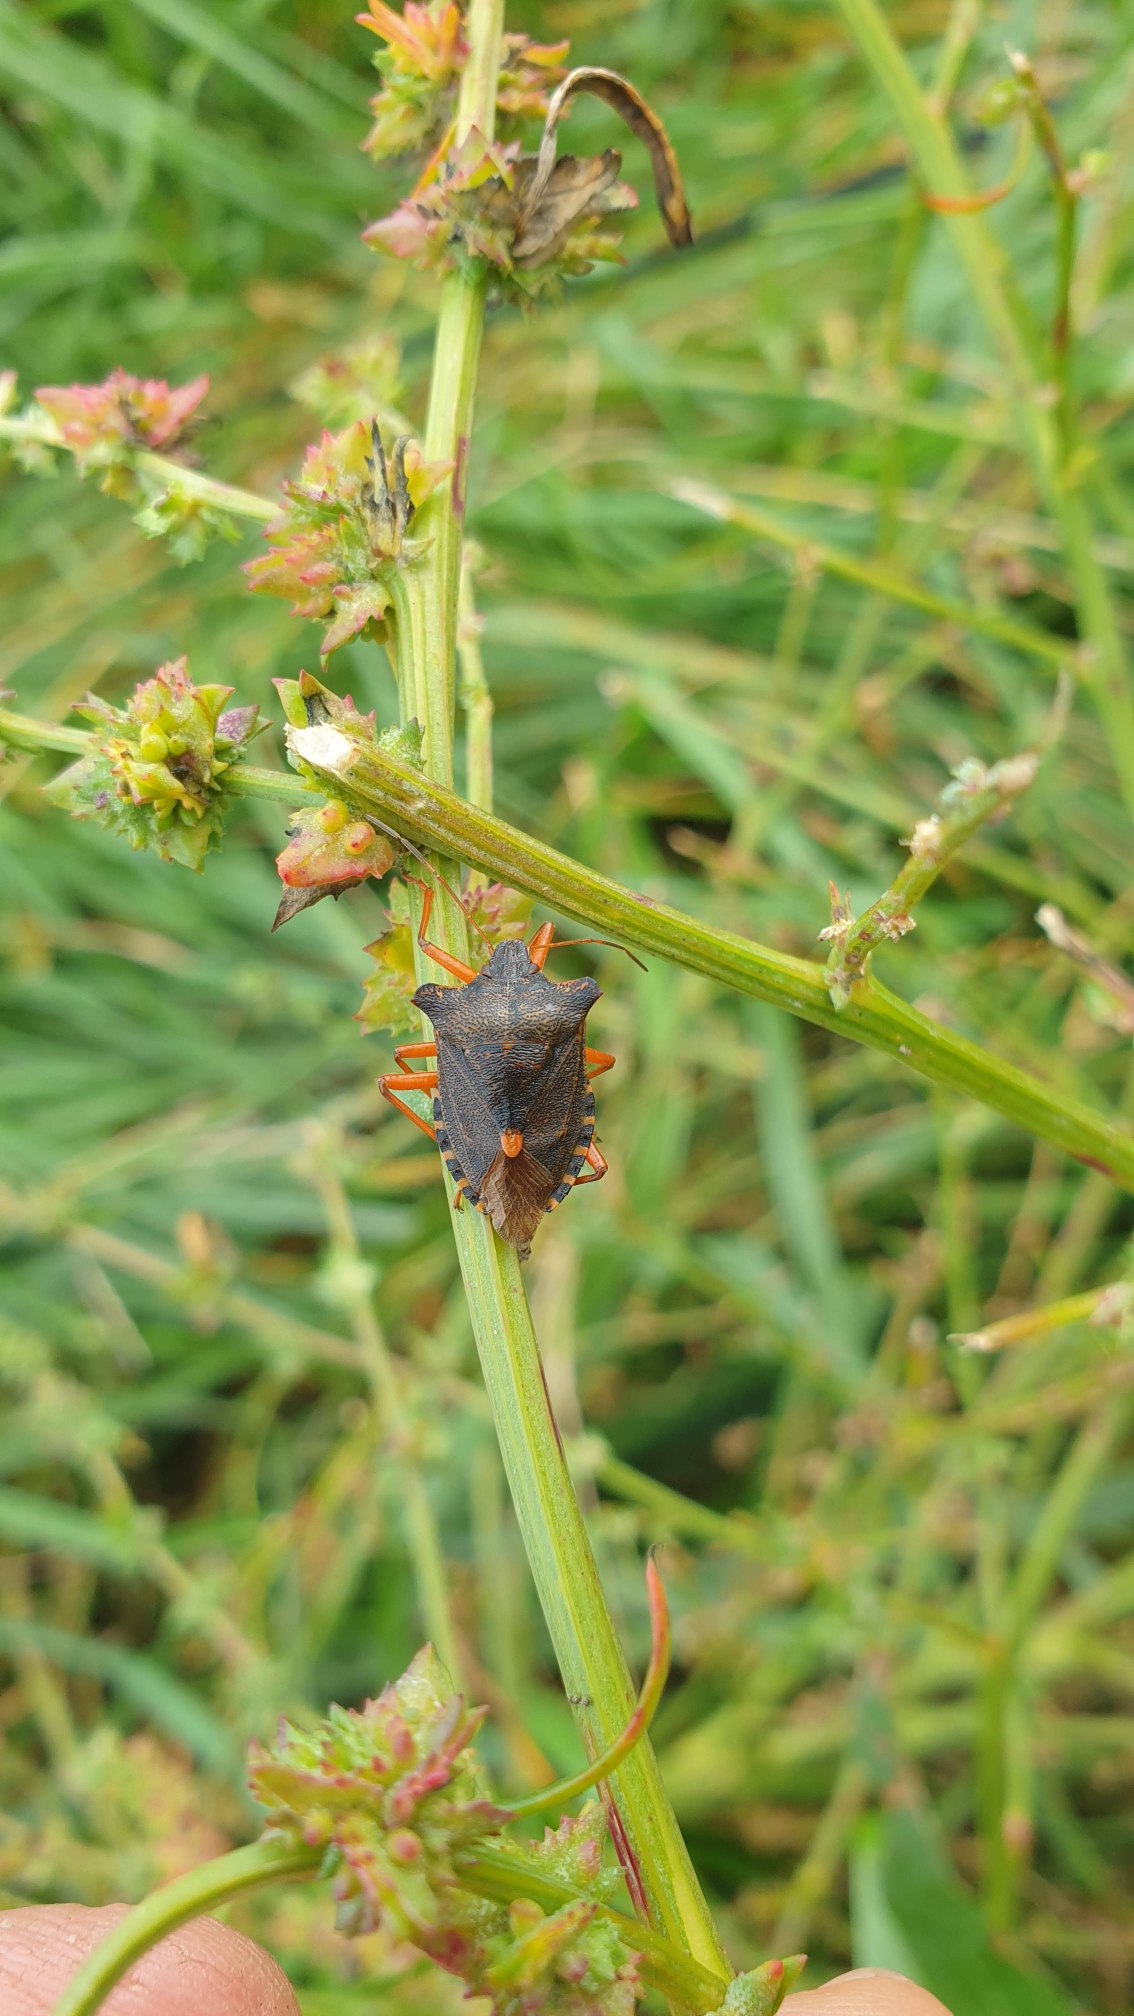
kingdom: Animalia
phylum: Arthropoda
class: Insecta
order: Hemiptera
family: Pentatomidae
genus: Pentatoma
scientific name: Pentatoma rufipes
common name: Rødbenet bredtæge
